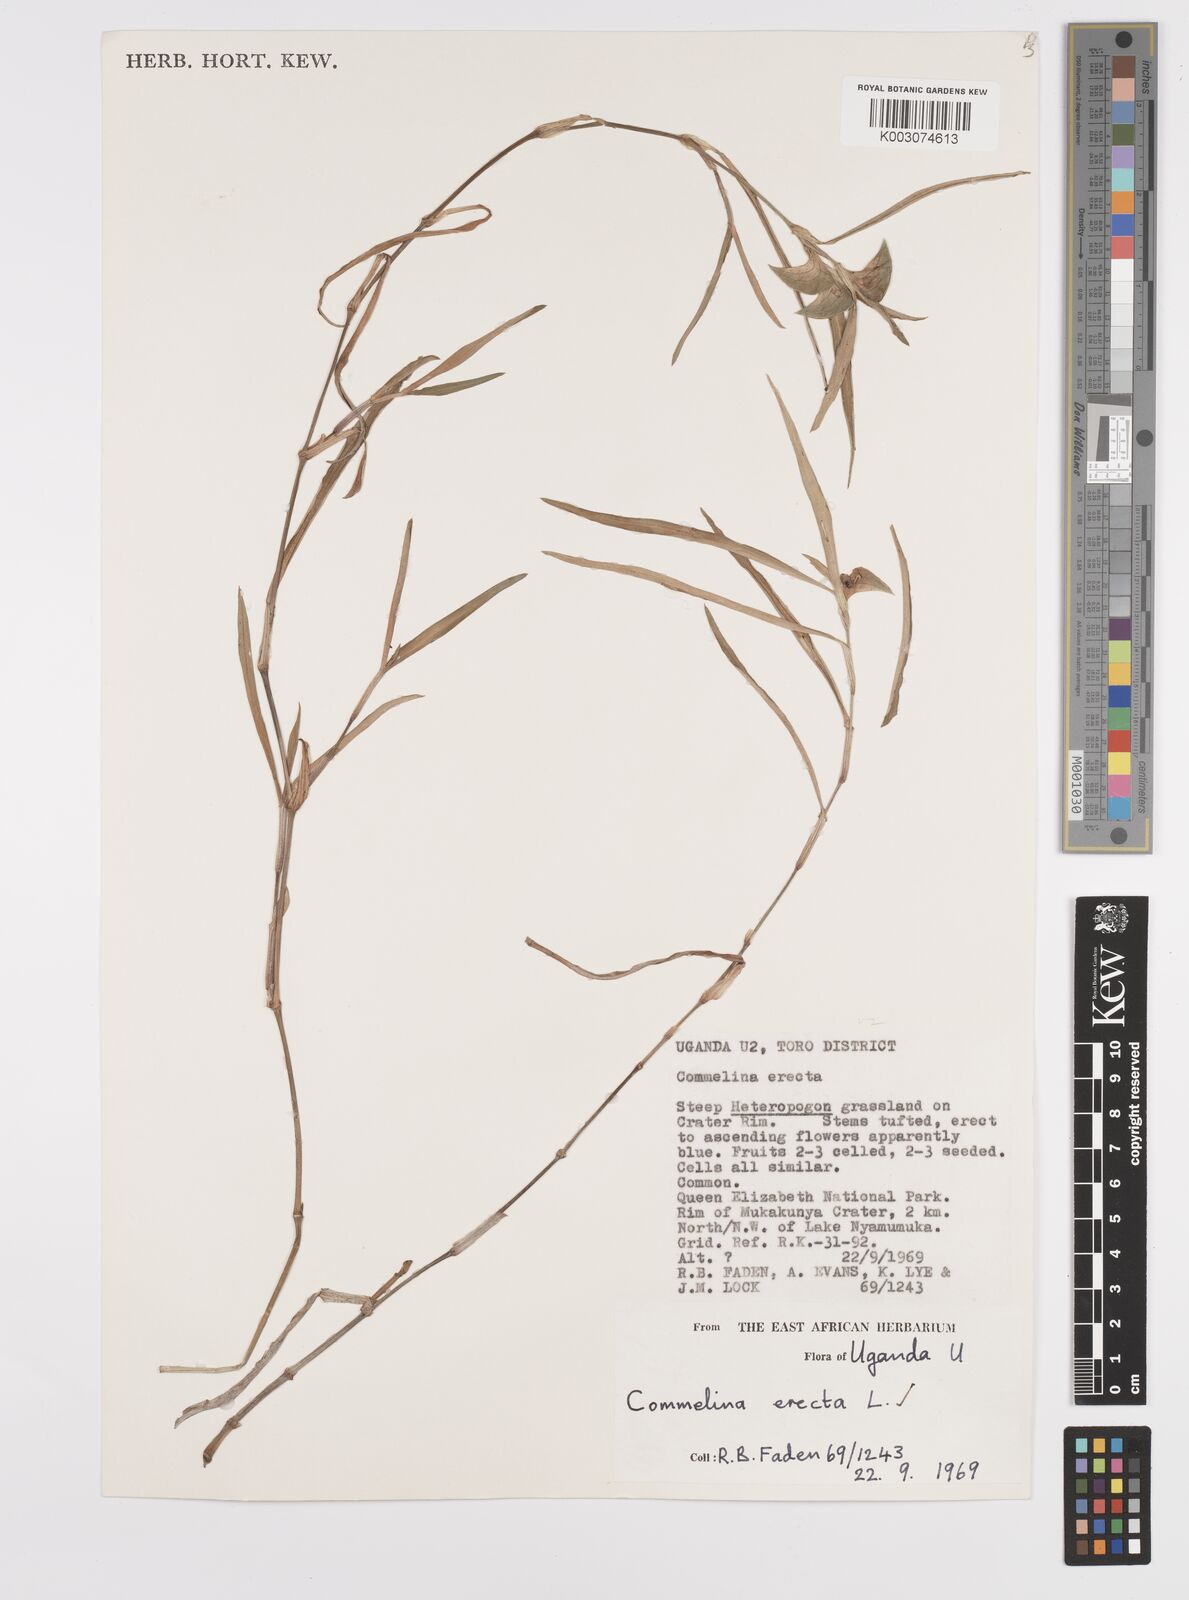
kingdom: Plantae
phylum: Tracheophyta
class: Liliopsida
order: Commelinales
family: Commelinaceae
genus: Commelina
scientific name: Commelina erecta
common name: Blousel blommetjie
